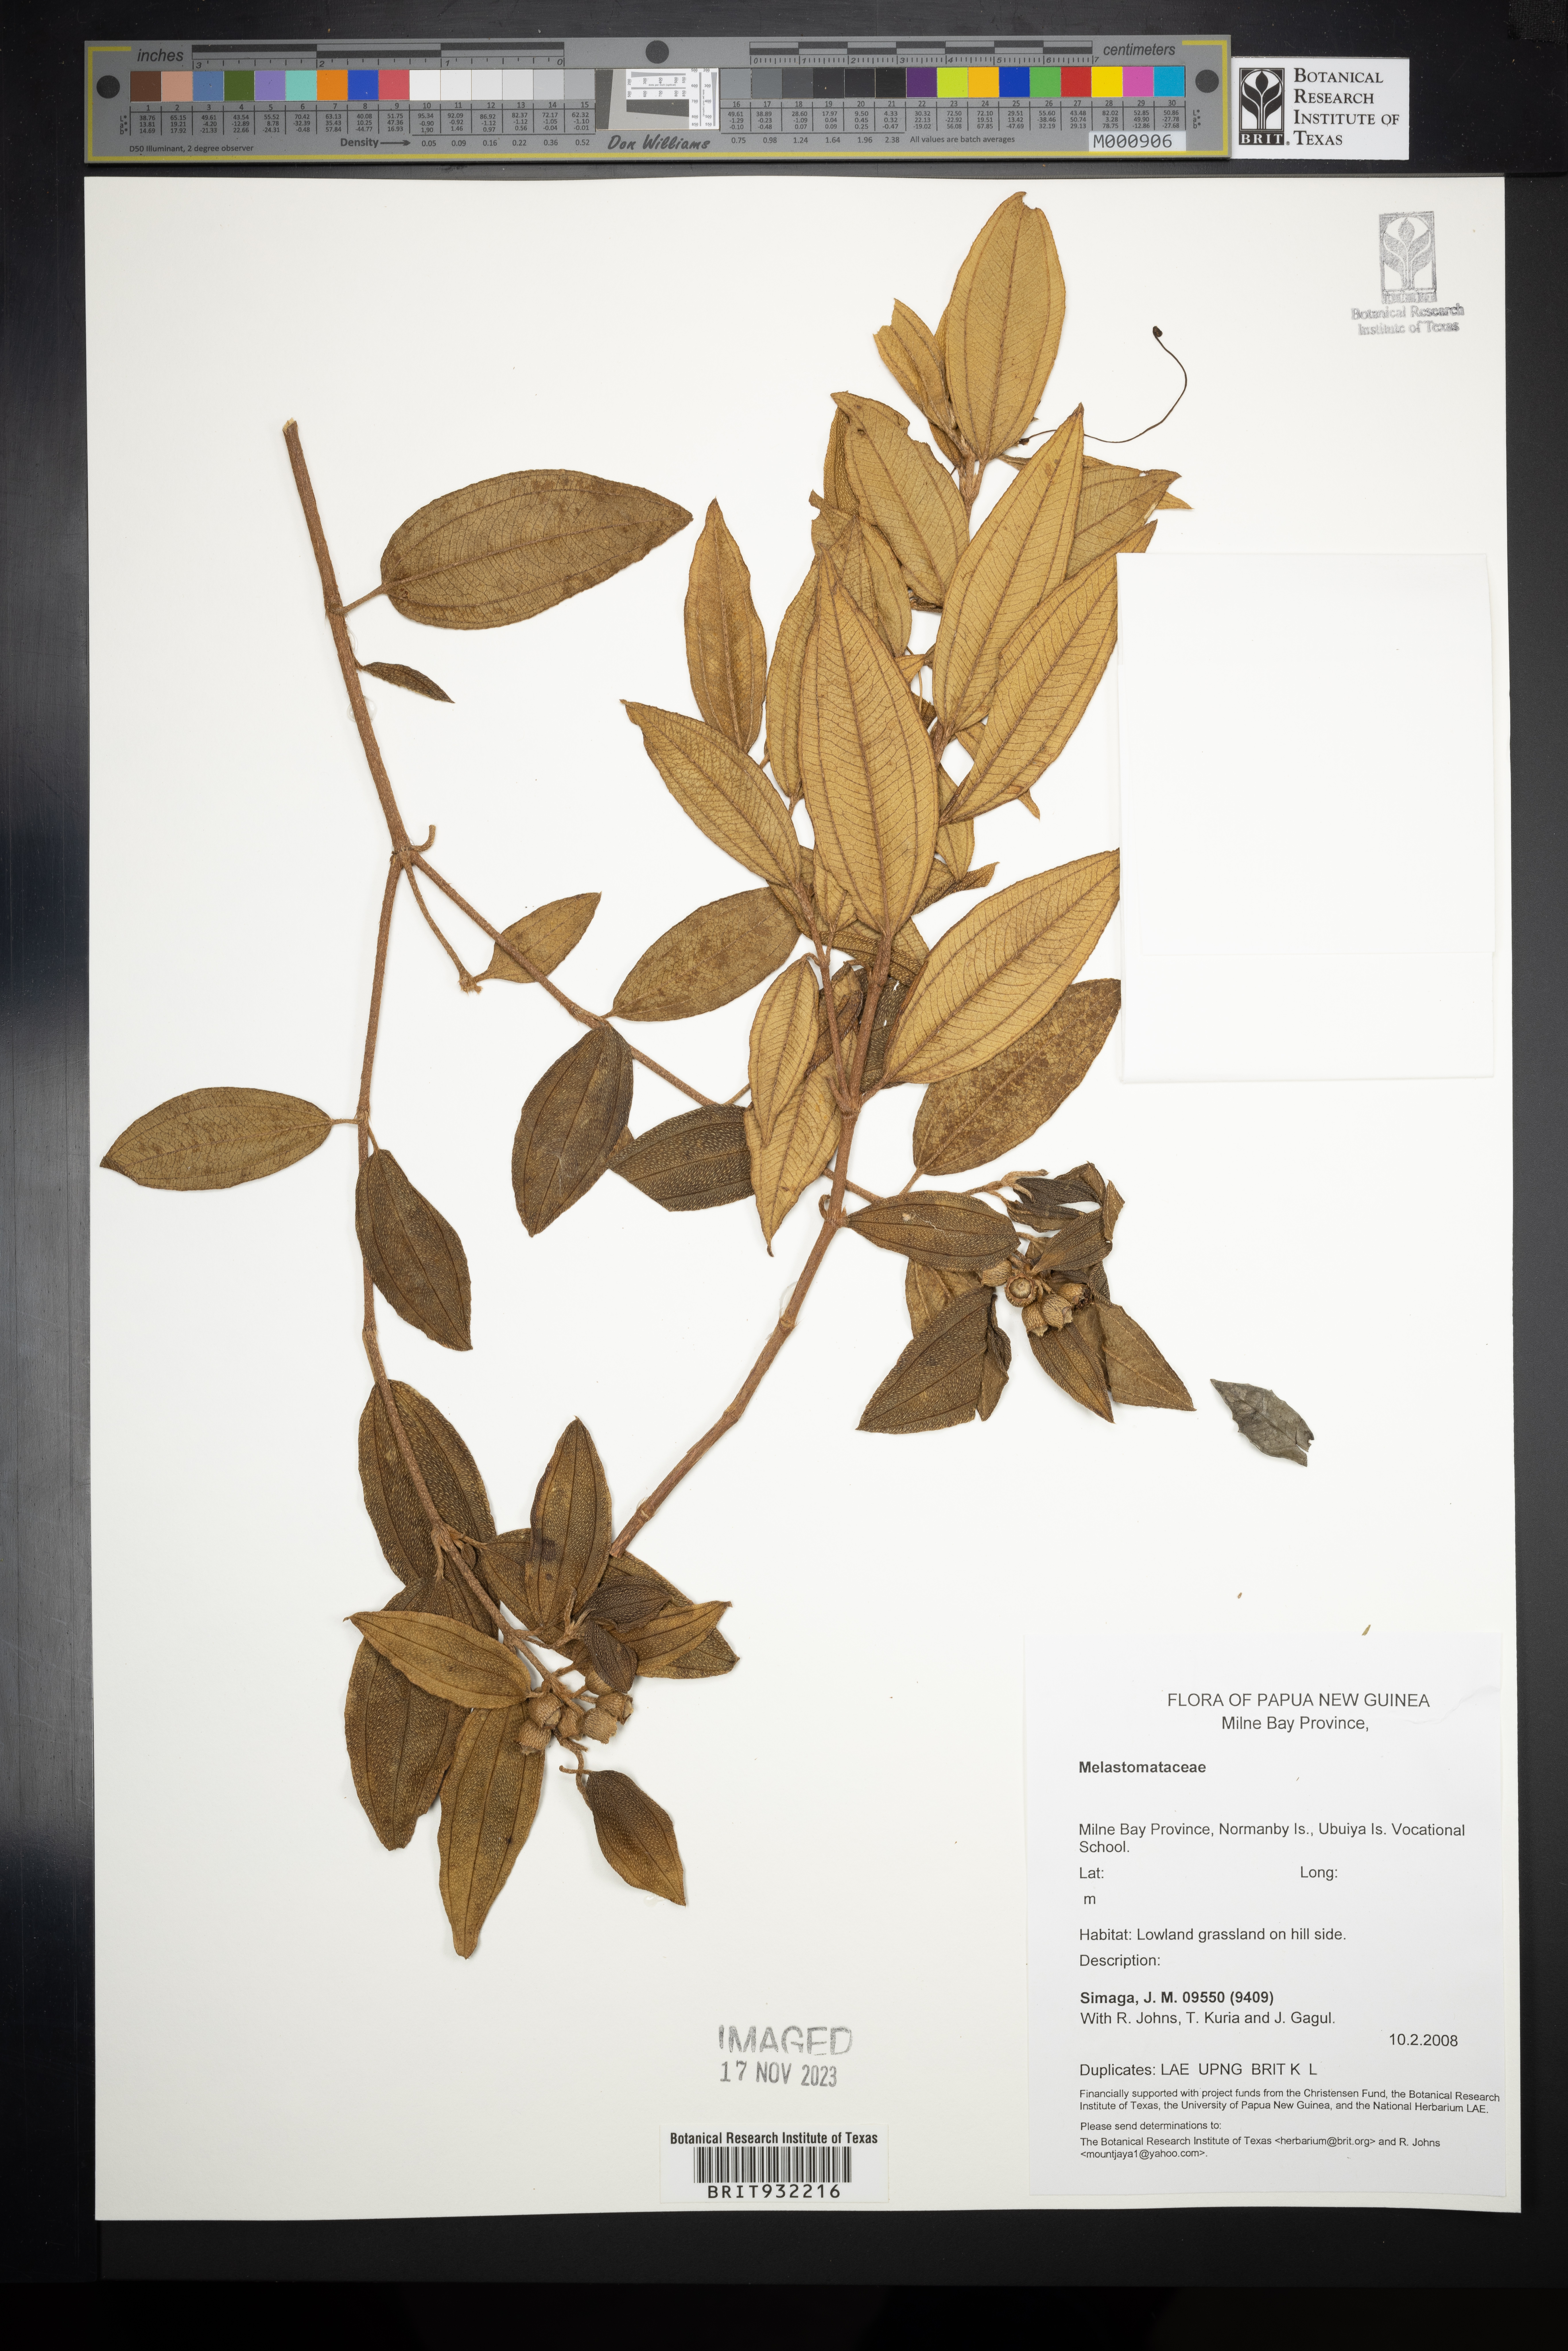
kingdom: Plantae
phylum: Tracheophyta
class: Magnoliopsida
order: Myrtales
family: Melastomataceae
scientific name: Melastomataceae
